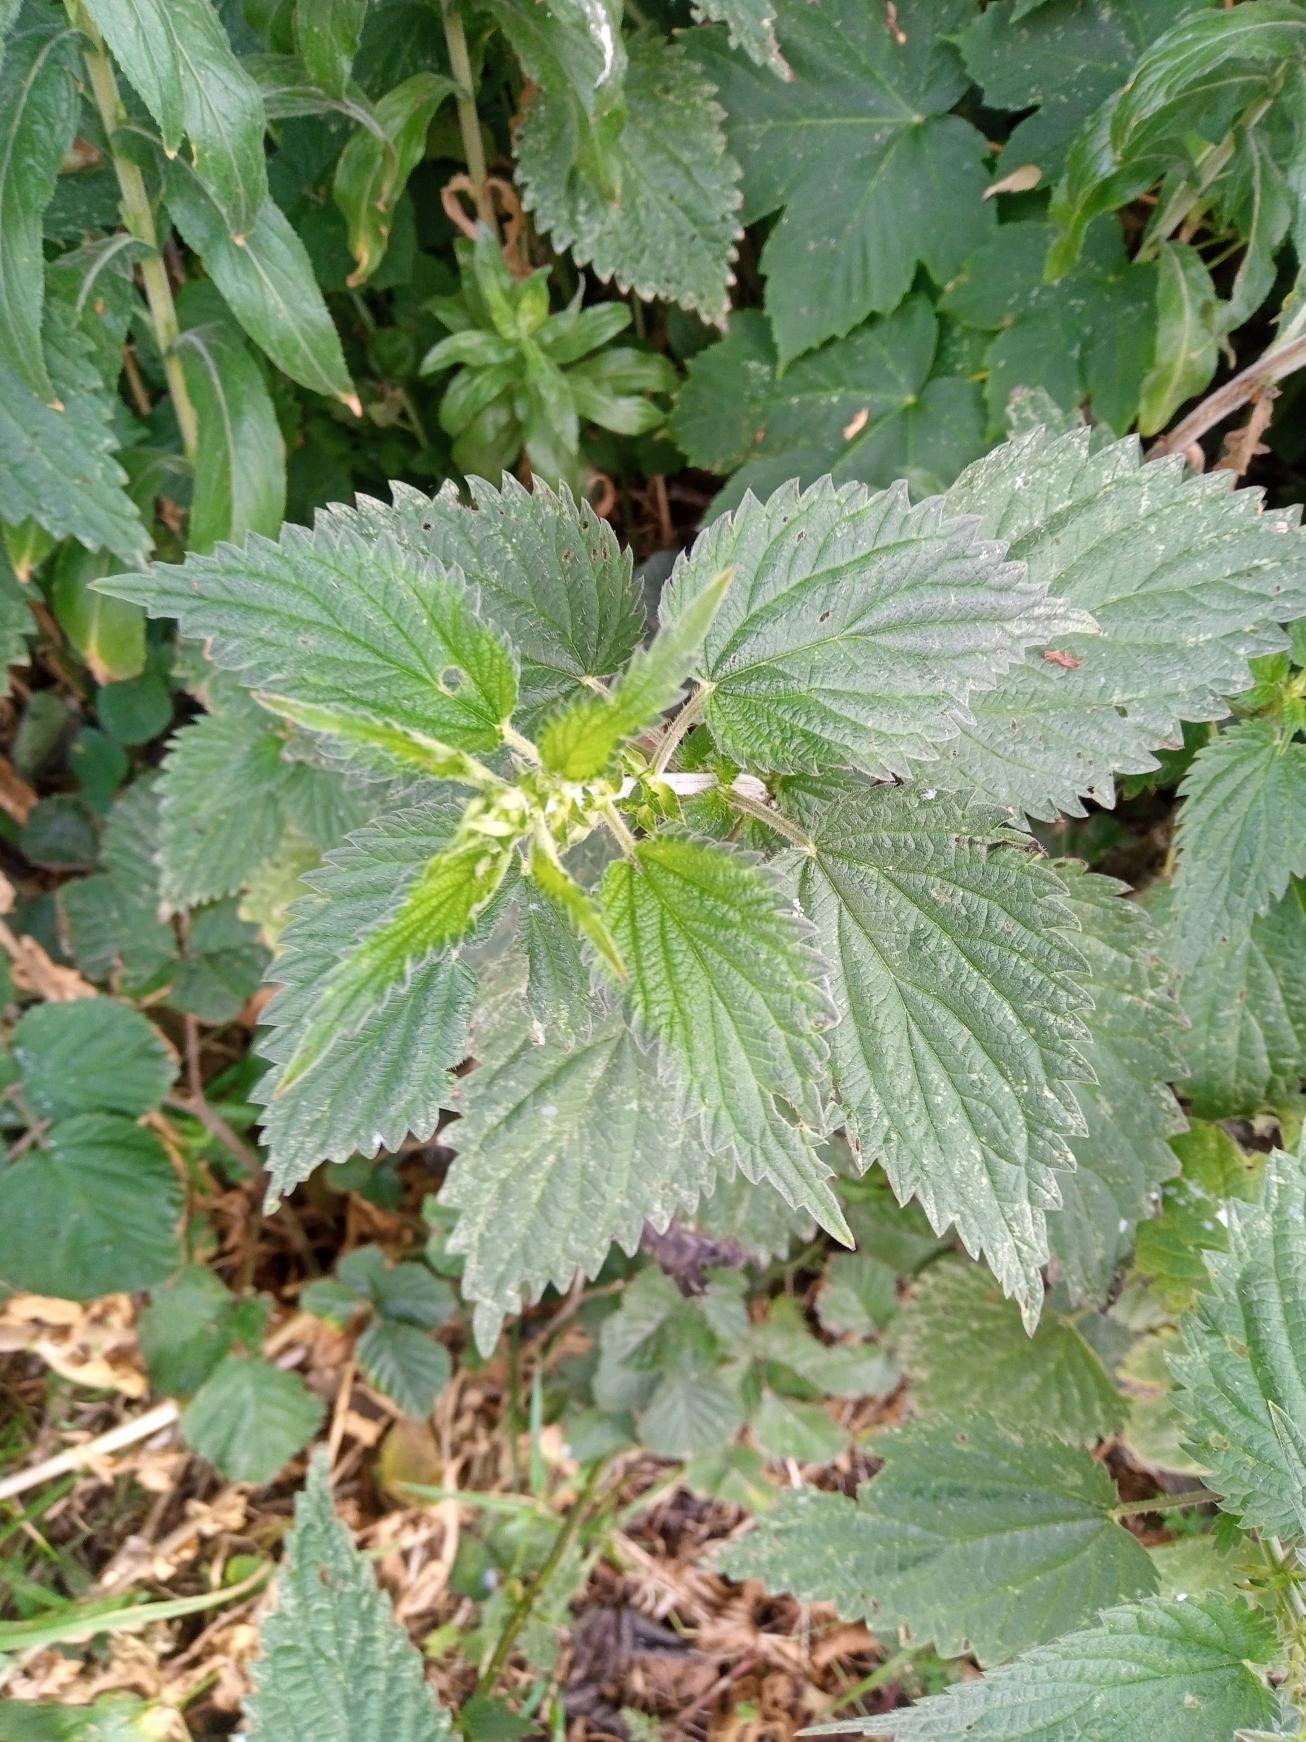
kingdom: Plantae
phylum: Tracheophyta
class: Magnoliopsida
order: Rosales
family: Urticaceae
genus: Urtica
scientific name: Urtica dioica
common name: Stor nælde
